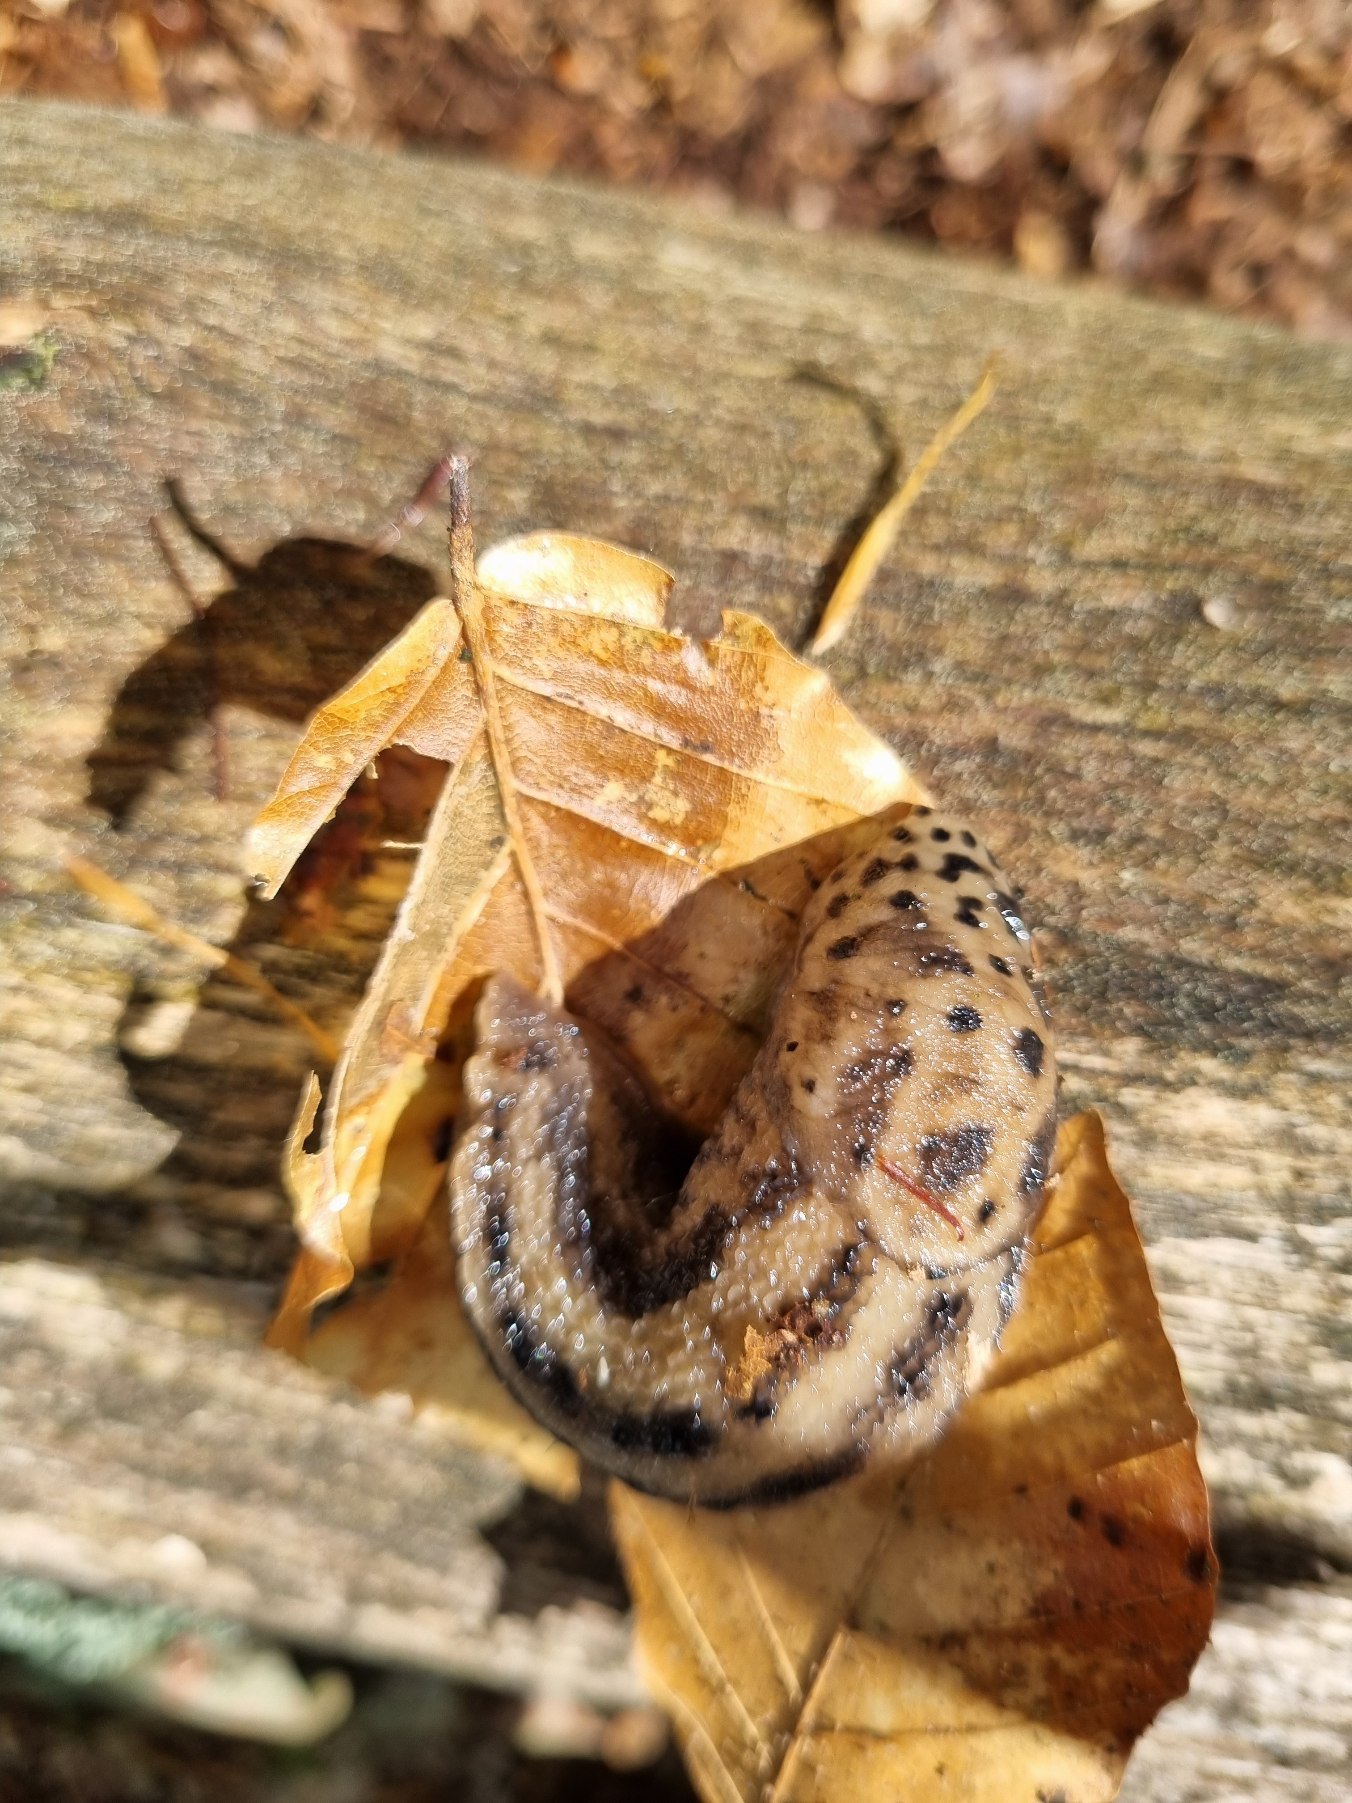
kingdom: Animalia
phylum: Mollusca
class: Gastropoda
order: Stylommatophora
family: Limacidae
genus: Limax
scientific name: Limax maximus
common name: Pantersnegl
